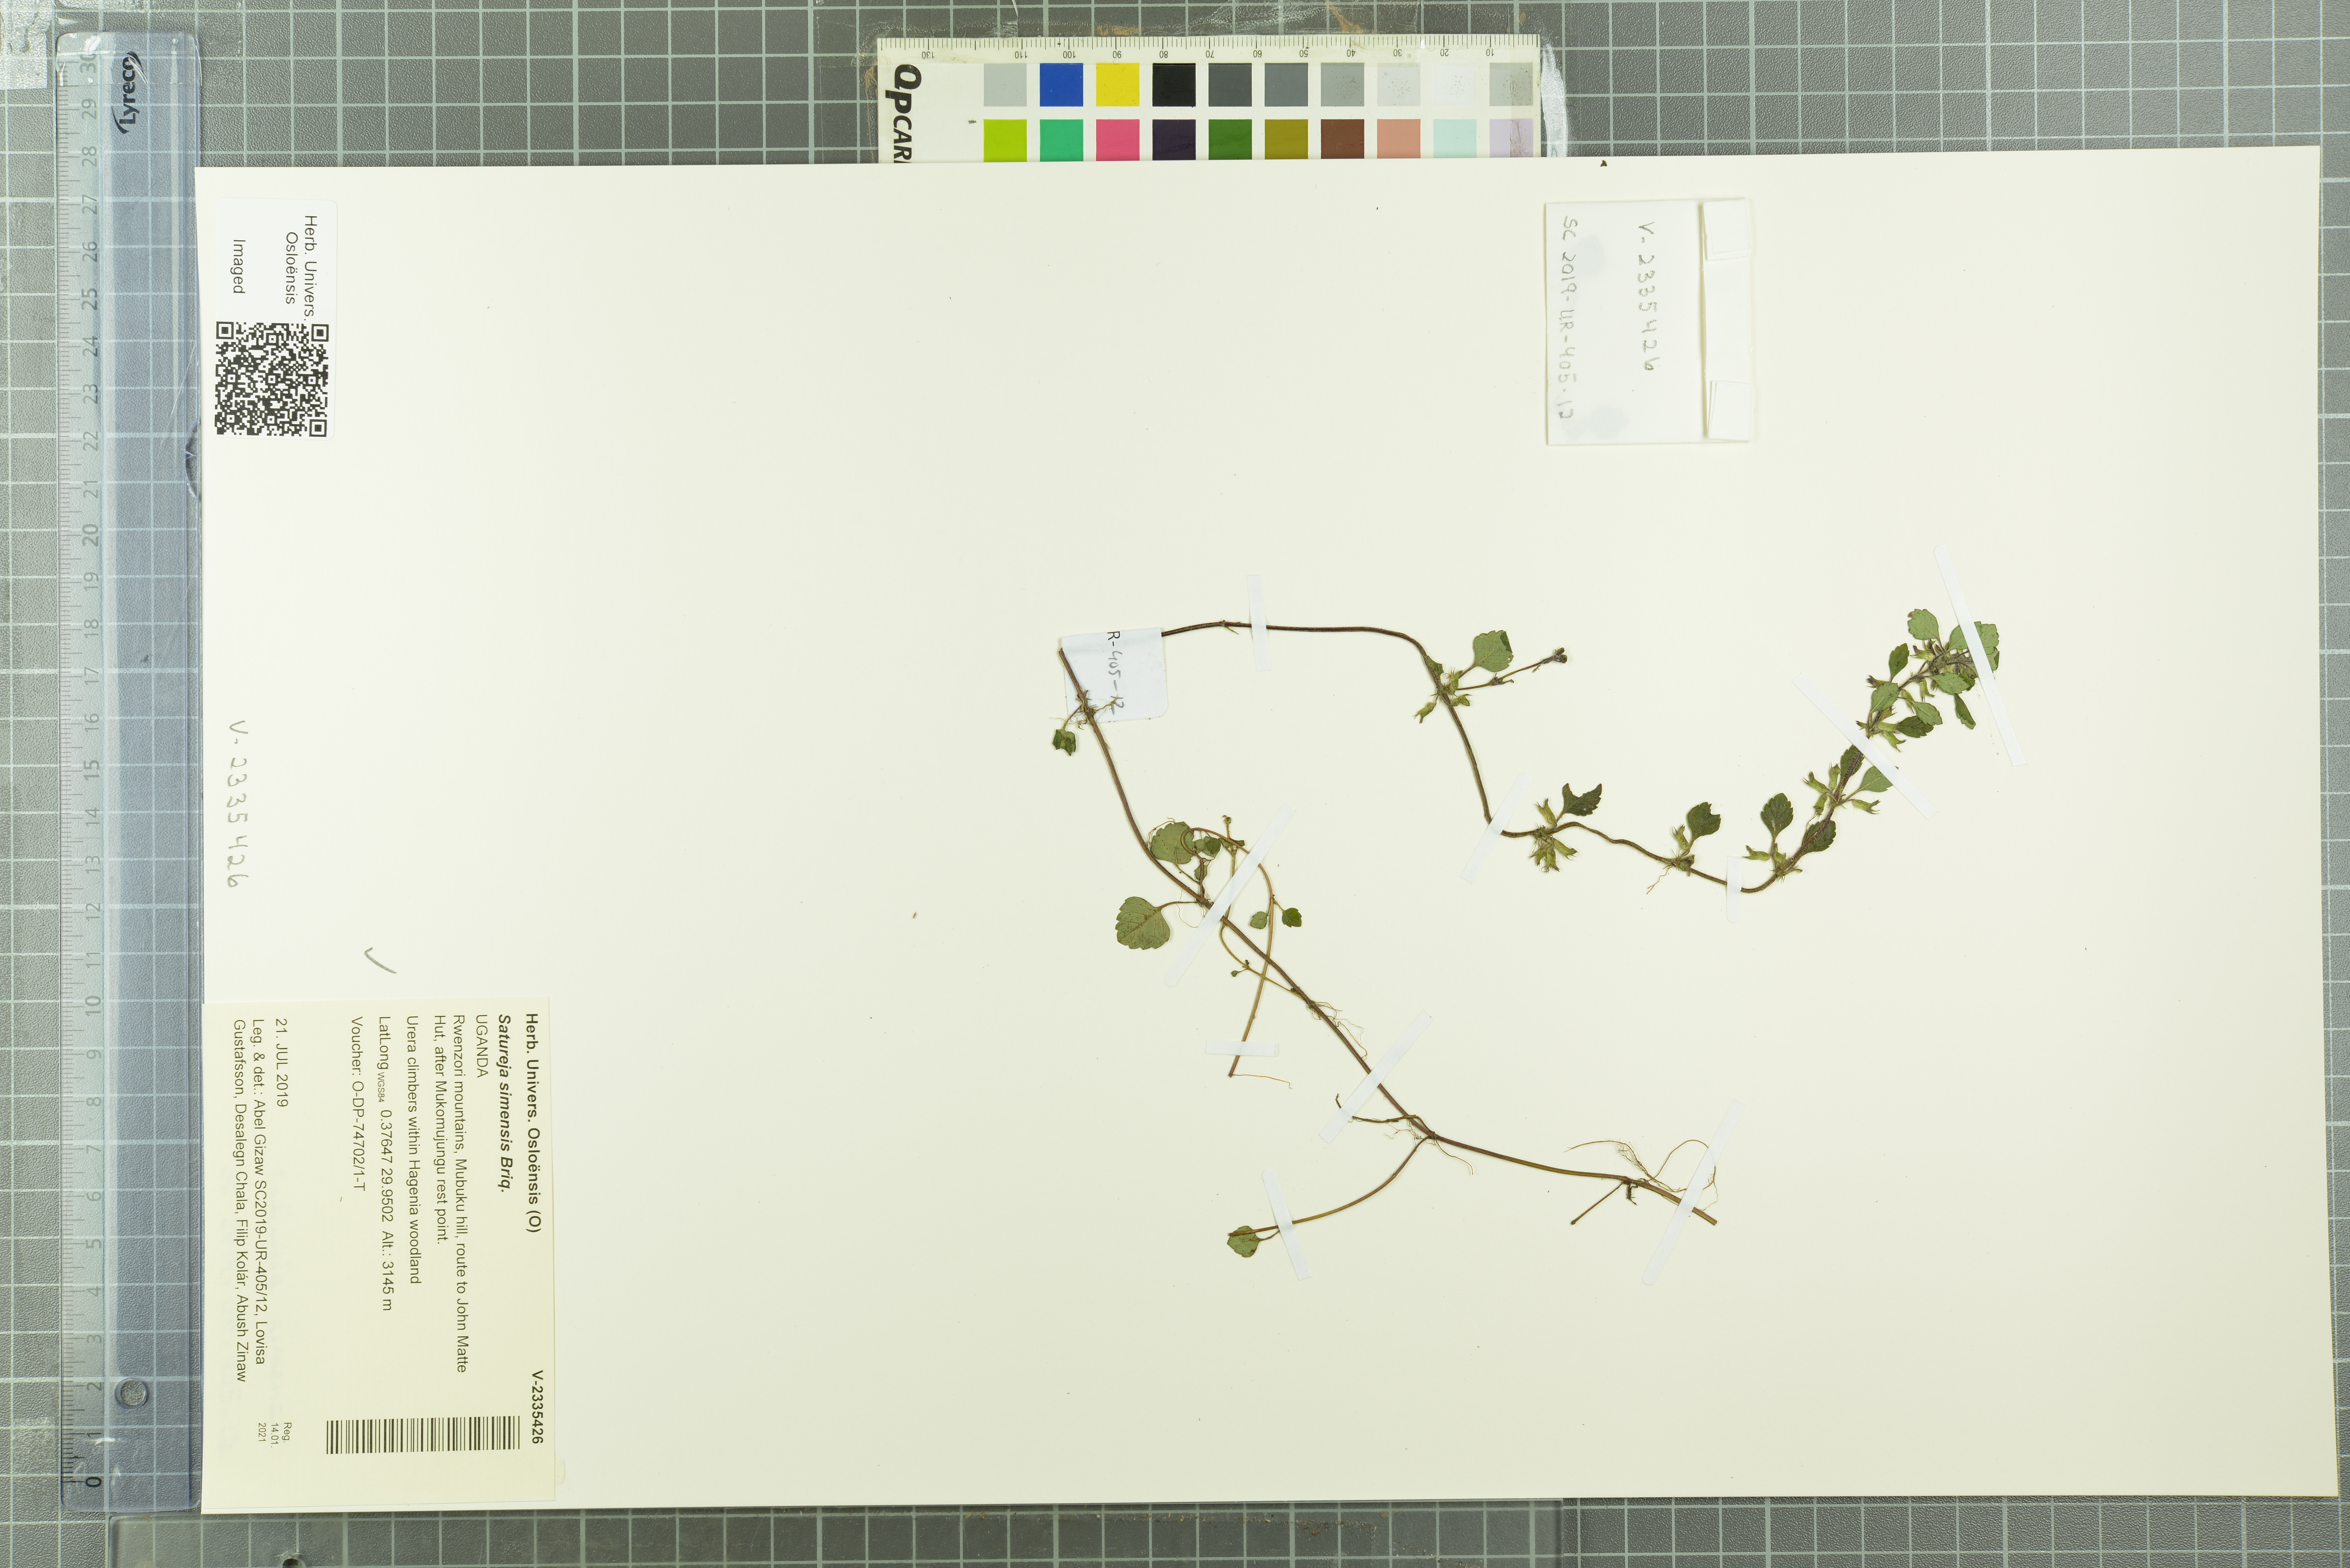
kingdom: Plantae
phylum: Tracheophyta
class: Magnoliopsida
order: Lamiales
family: Lamiaceae
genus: Clinopodium
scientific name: Clinopodium simense
